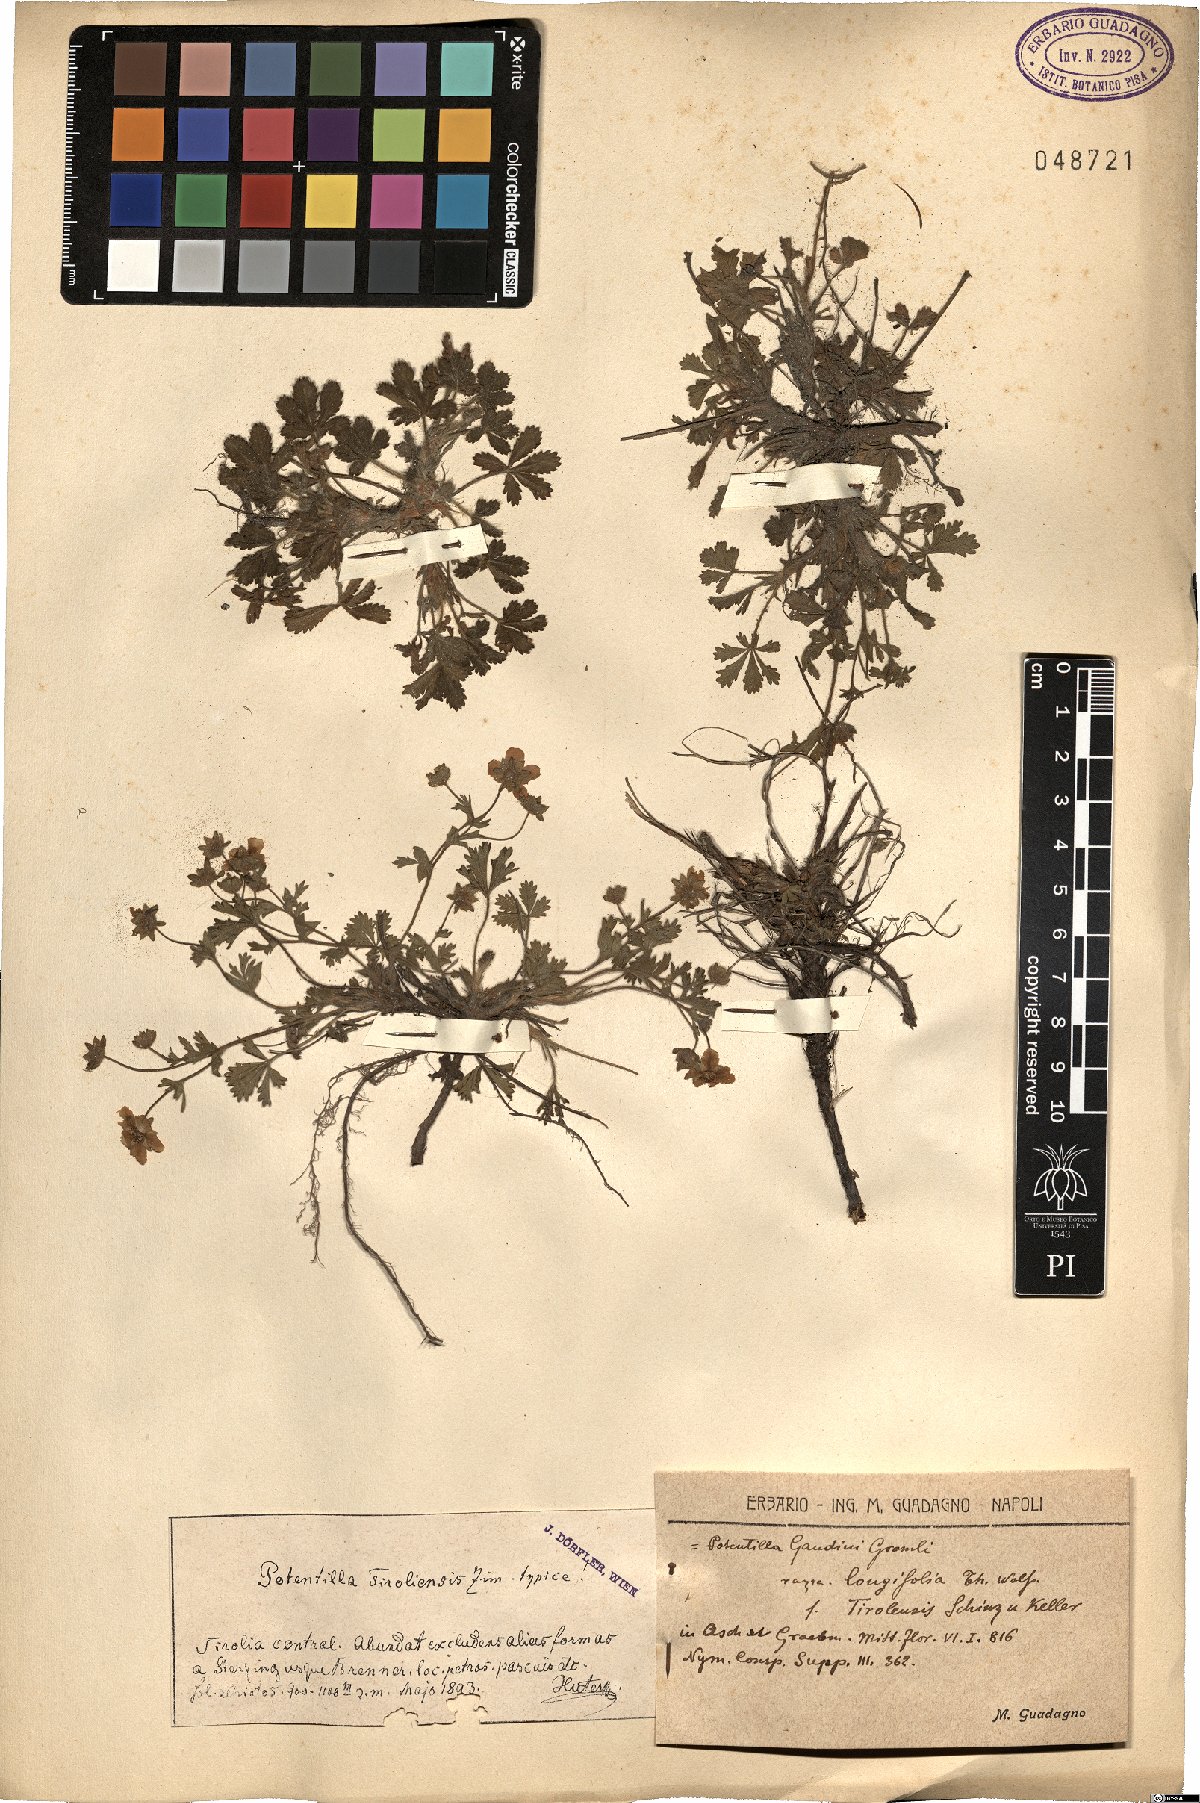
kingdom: Plantae
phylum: Tracheophyta
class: Magnoliopsida
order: Rosales
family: Rosaceae
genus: Potentilla
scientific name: Potentilla pusilla
